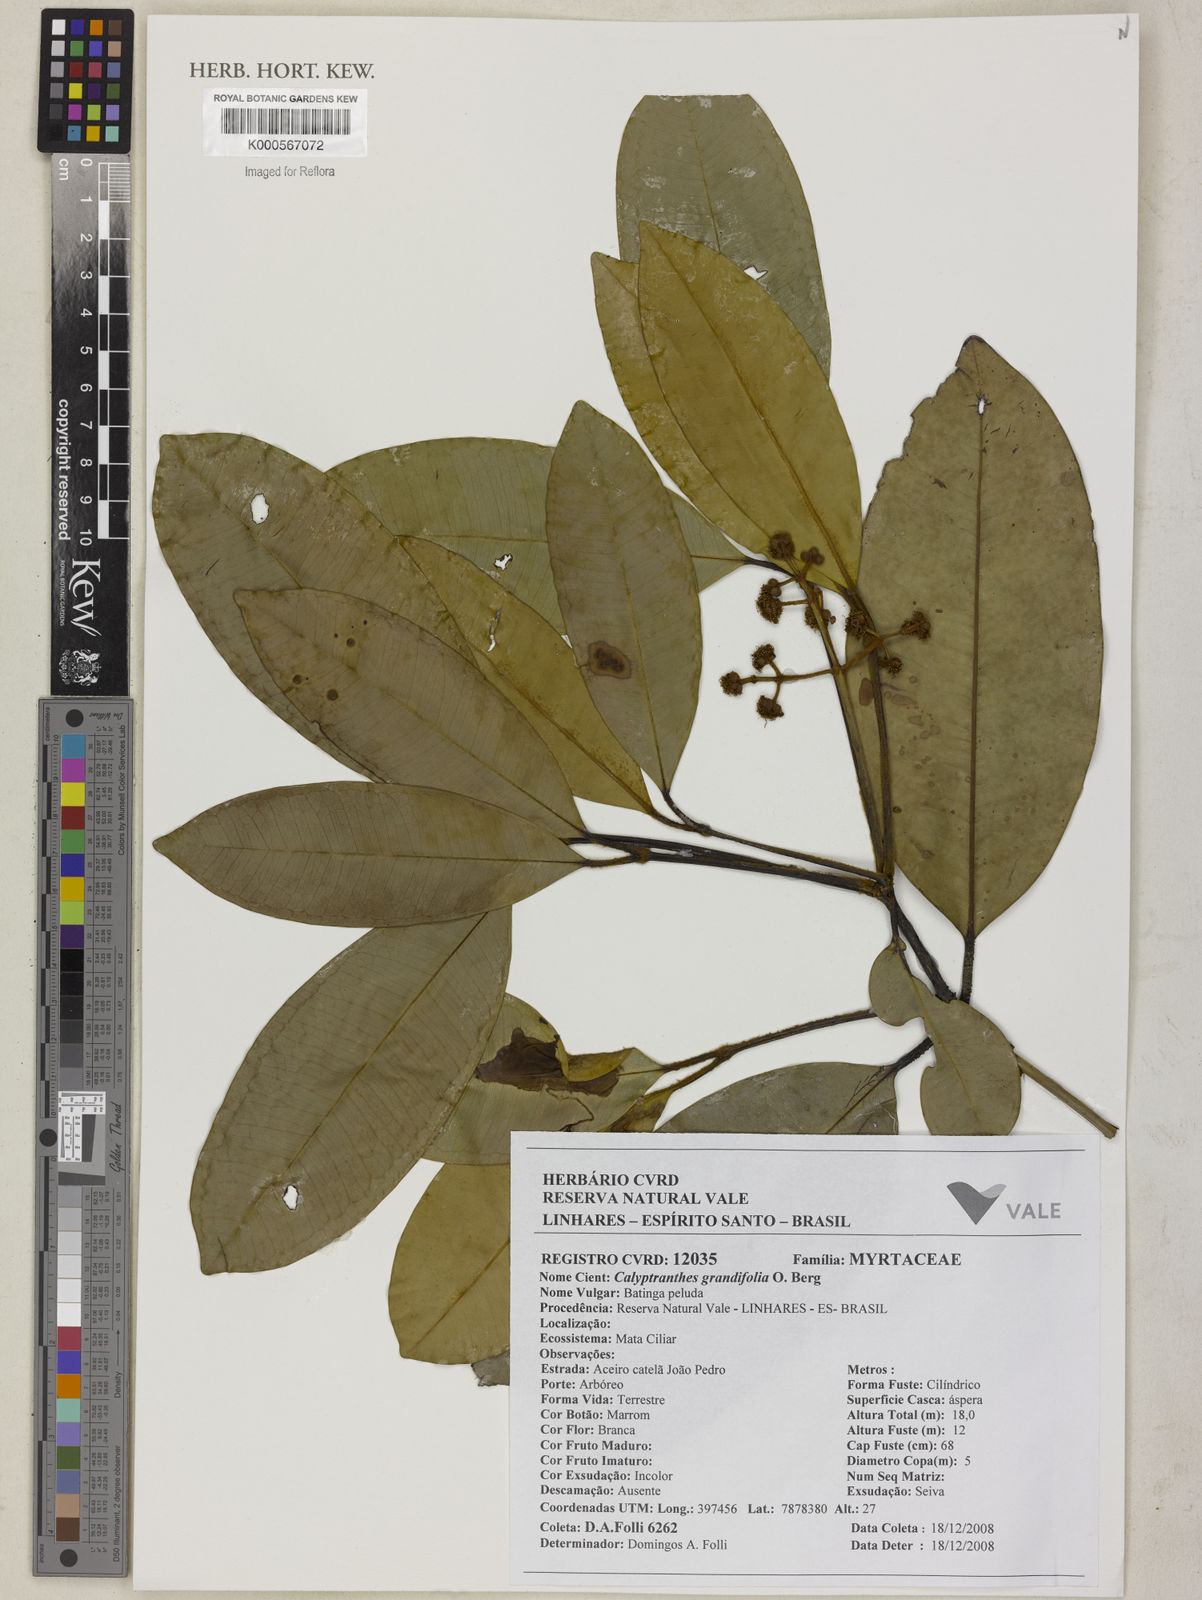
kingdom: Plantae
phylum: Tracheophyta
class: Magnoliopsida
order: Myrtales
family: Myrtaceae
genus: Calyptranthes
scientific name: Calyptranthes grandifolia
